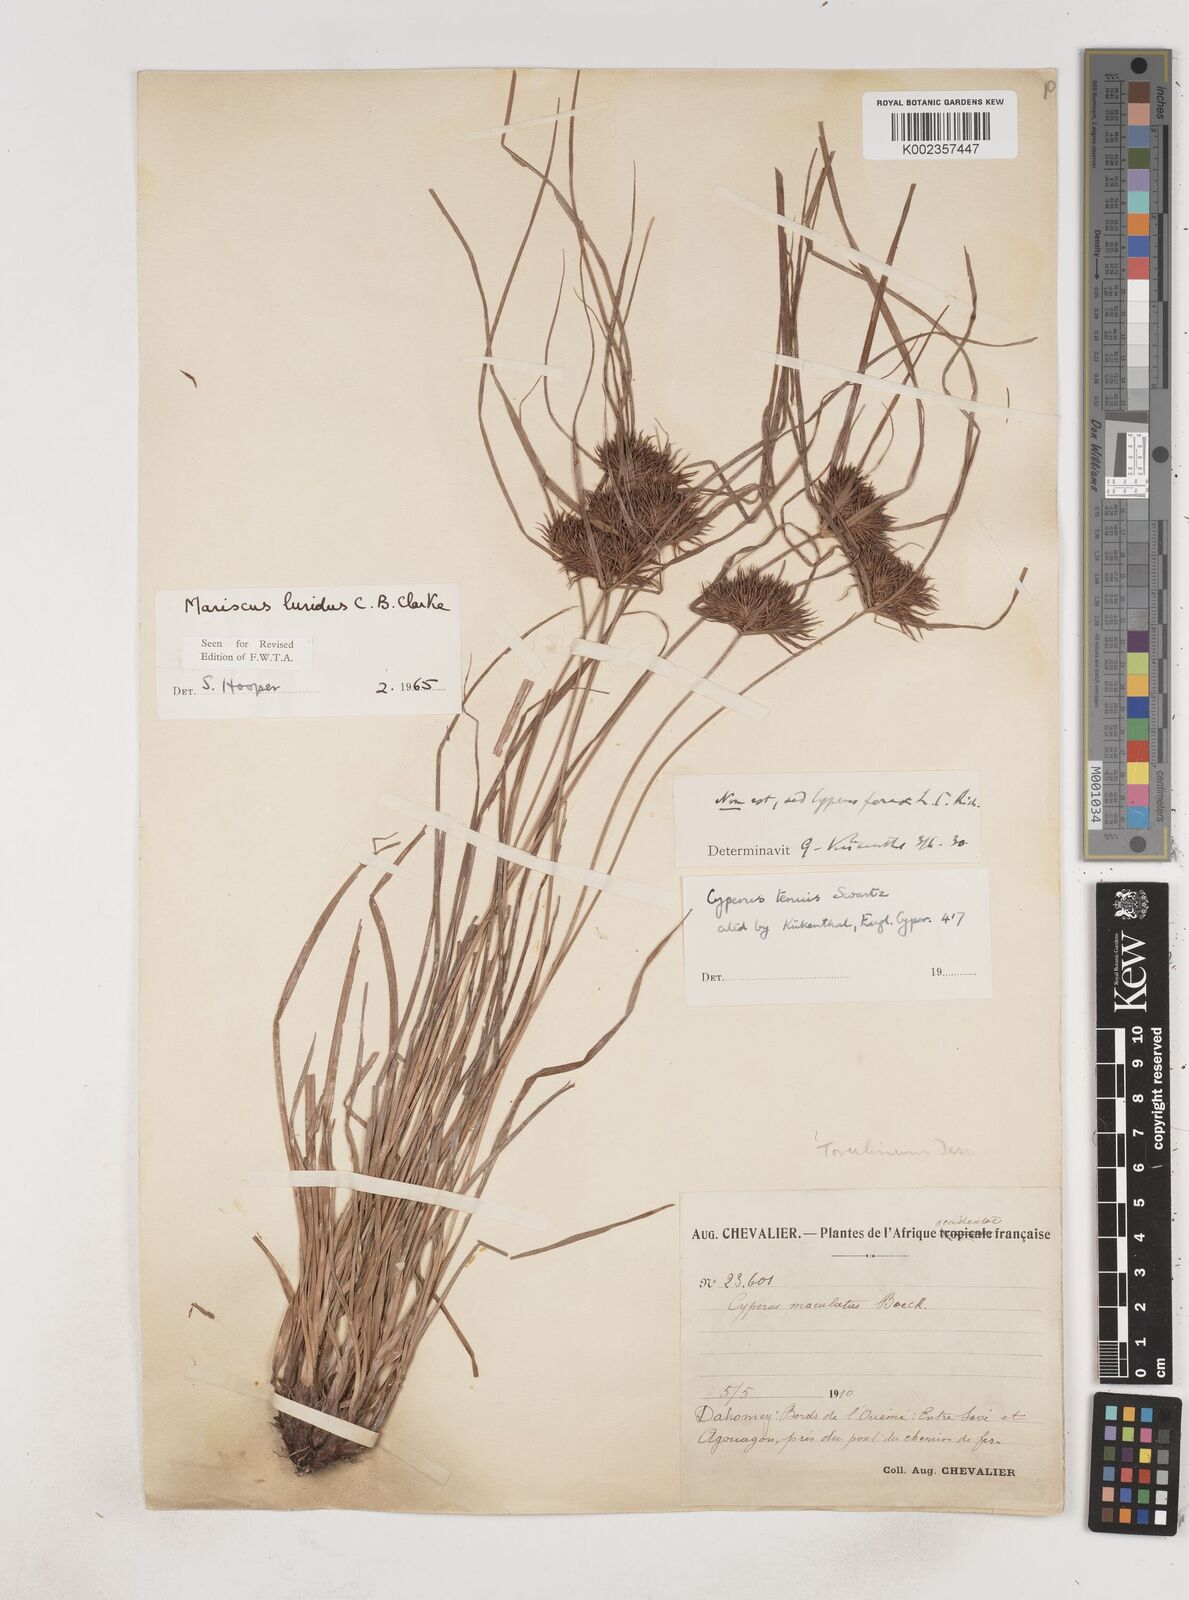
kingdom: Plantae
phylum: Tracheophyta
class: Liliopsida
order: Poales
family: Cyperaceae
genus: Cyperus
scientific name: Cyperus malabaricus
